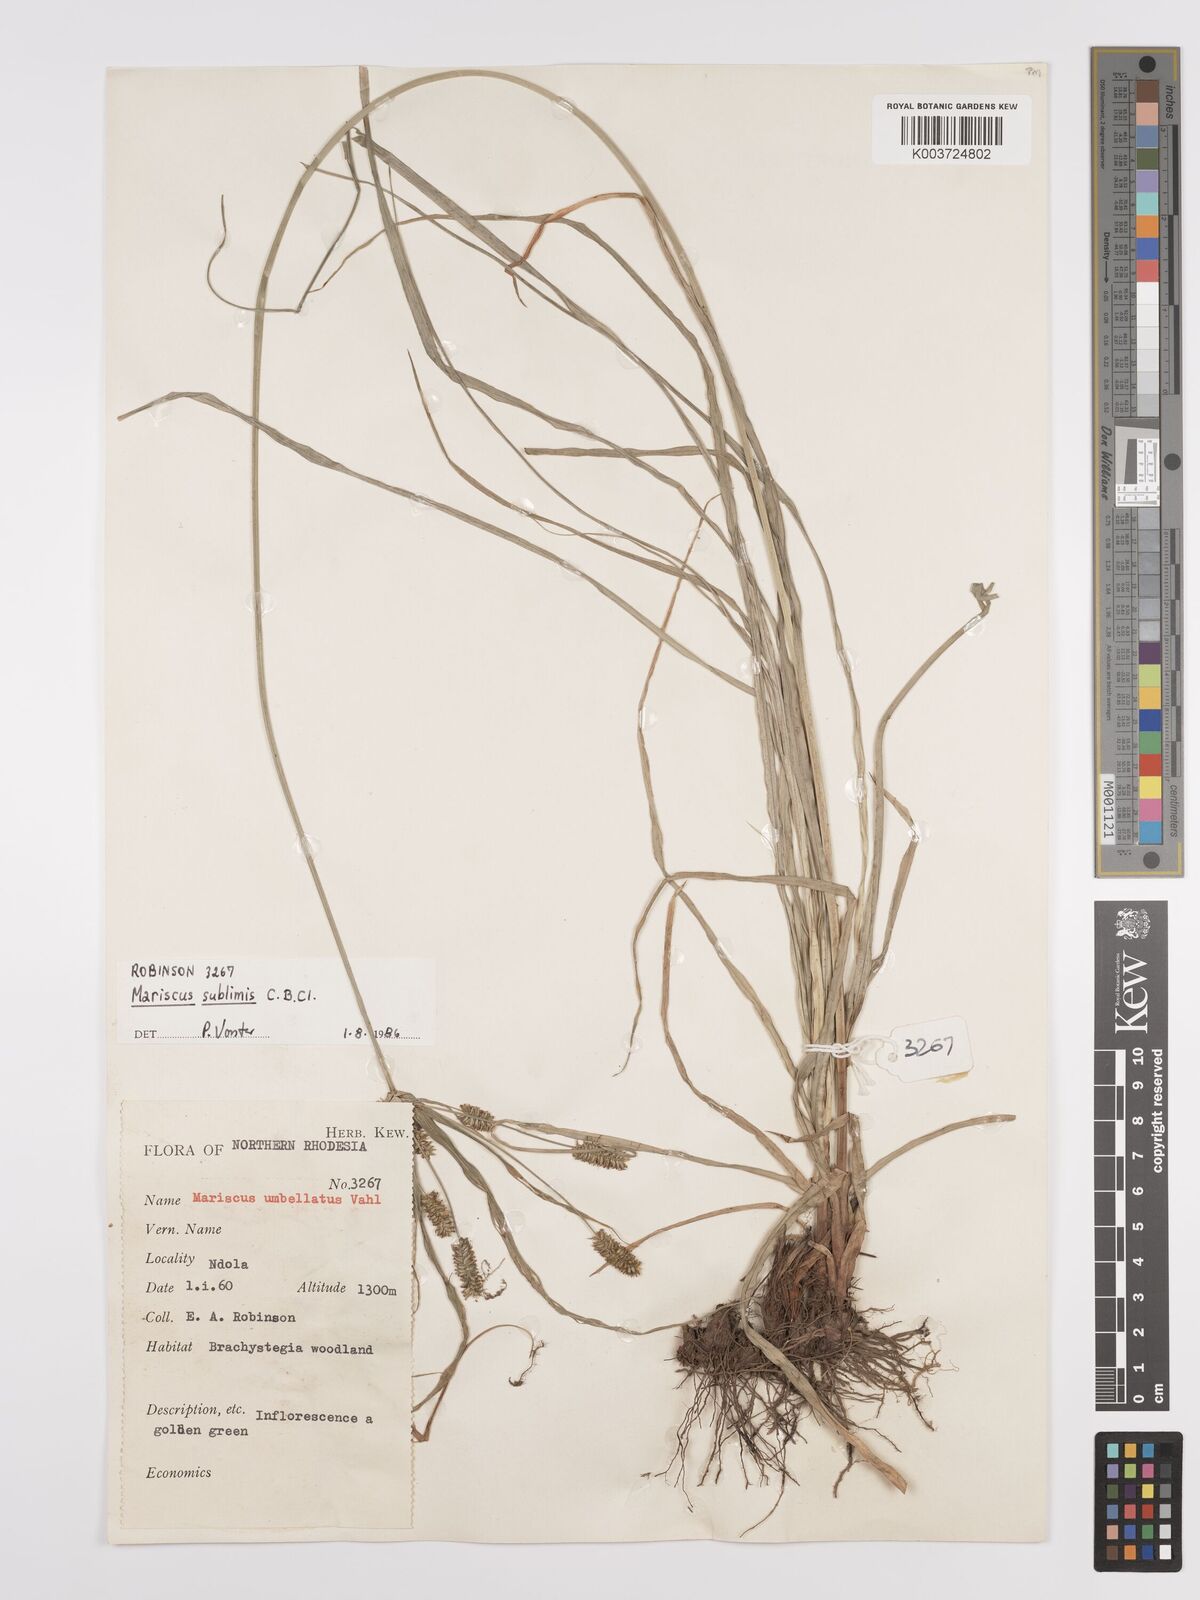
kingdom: Plantae
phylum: Tracheophyta
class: Liliopsida
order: Poales
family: Cyperaceae
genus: Cyperus
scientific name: Cyperus cyperoides
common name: Pacific island flat sedge
